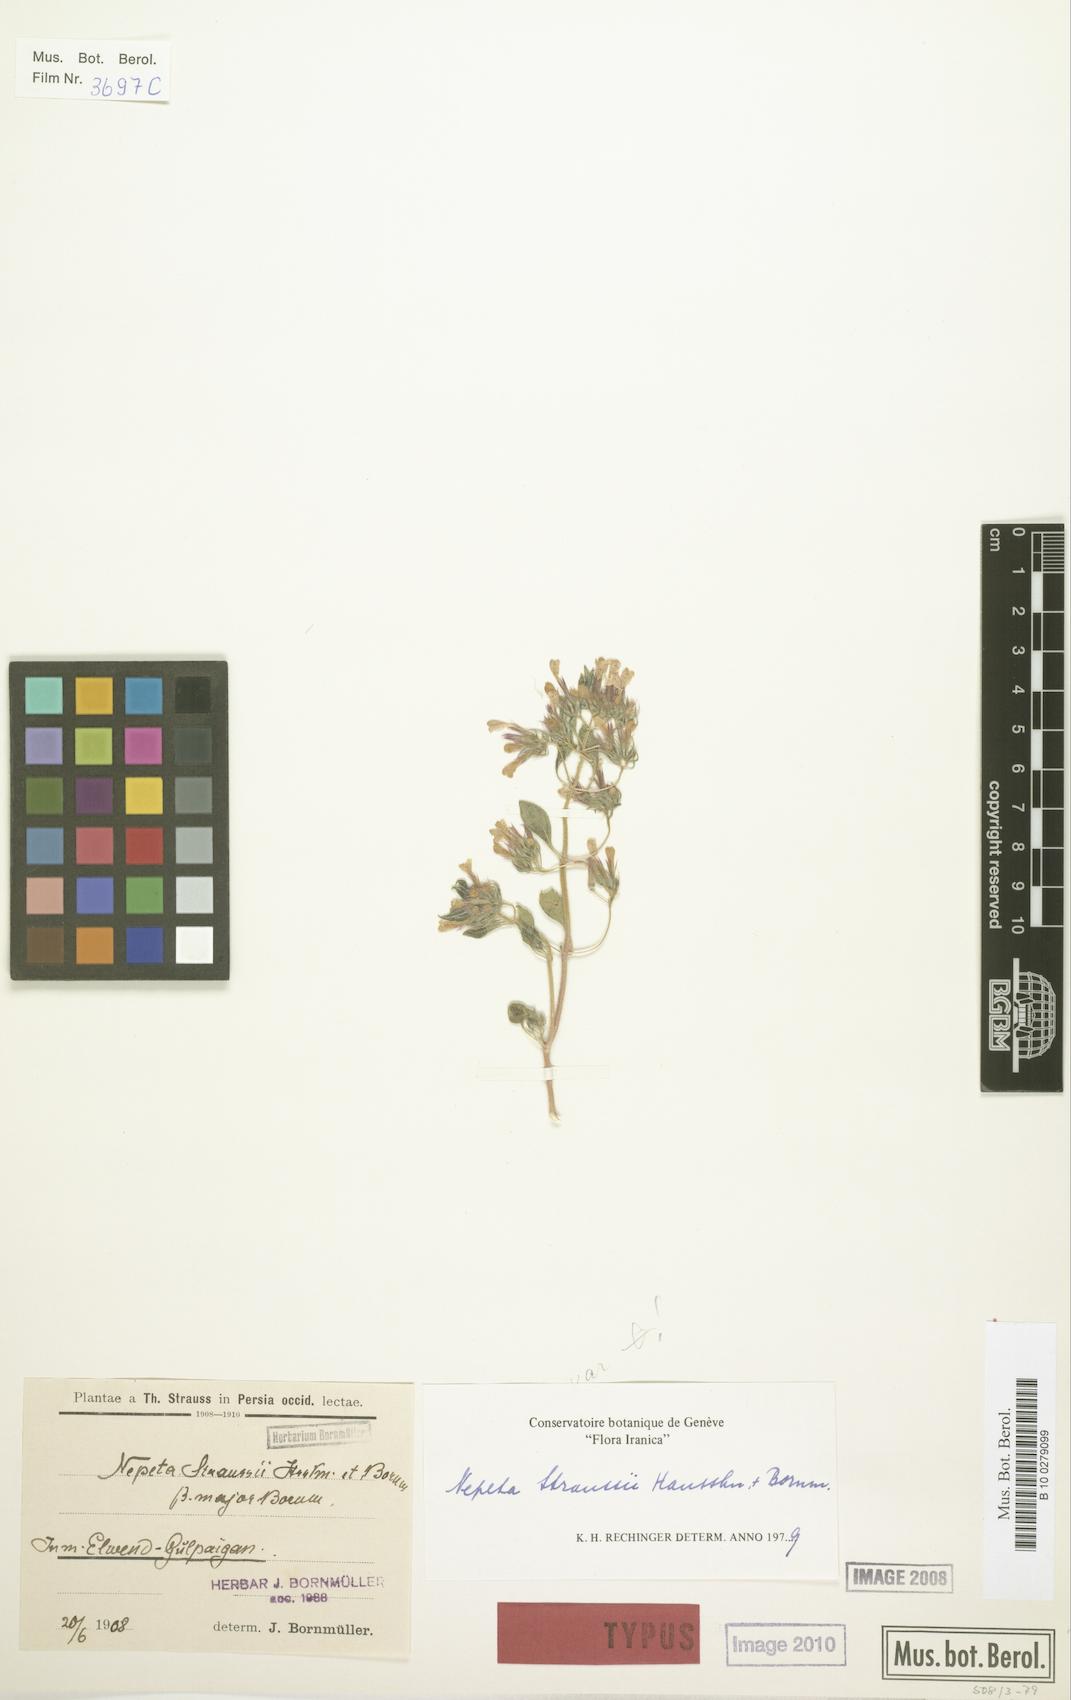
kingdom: Plantae
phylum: Tracheophyta
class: Magnoliopsida
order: Lamiales
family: Lamiaceae
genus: Nepeta
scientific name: Nepeta straussii
